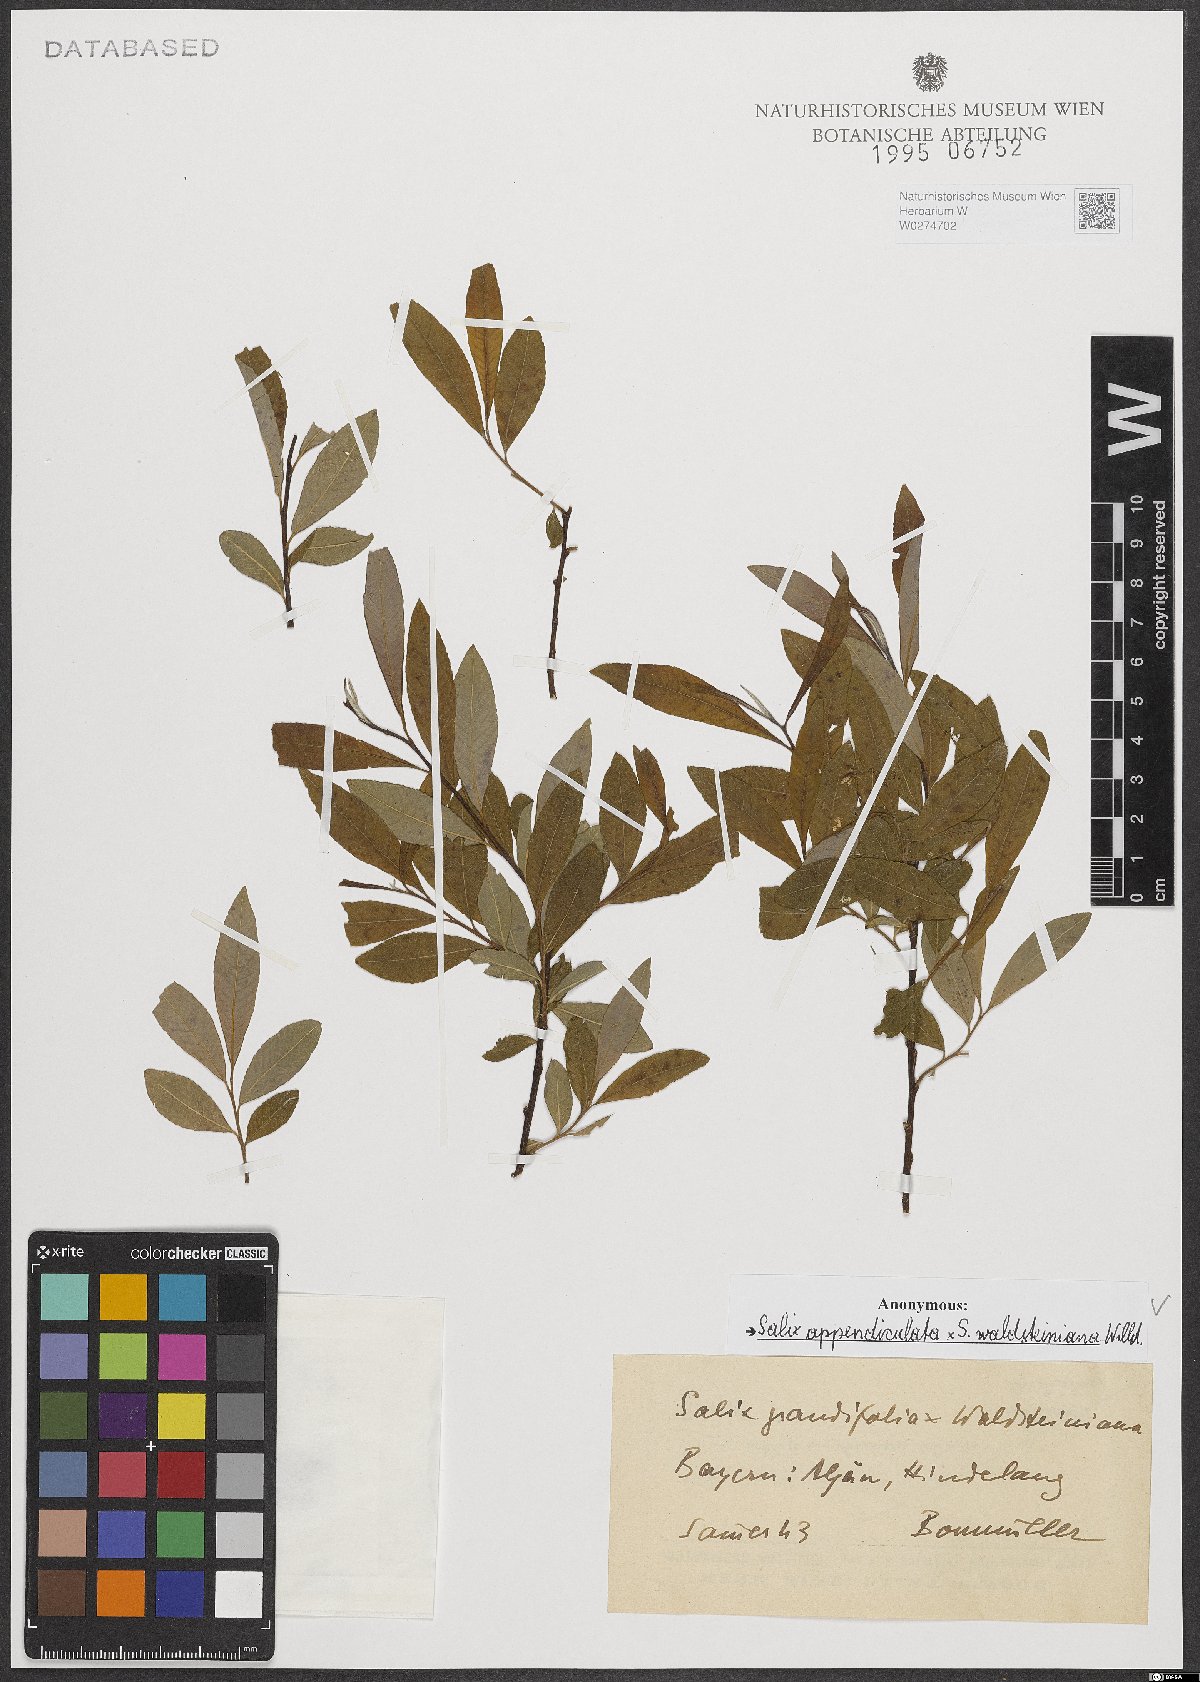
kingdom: Plantae
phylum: Tracheophyta
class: Magnoliopsida
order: Malpighiales
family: Salicaceae
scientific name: Salicaceae
